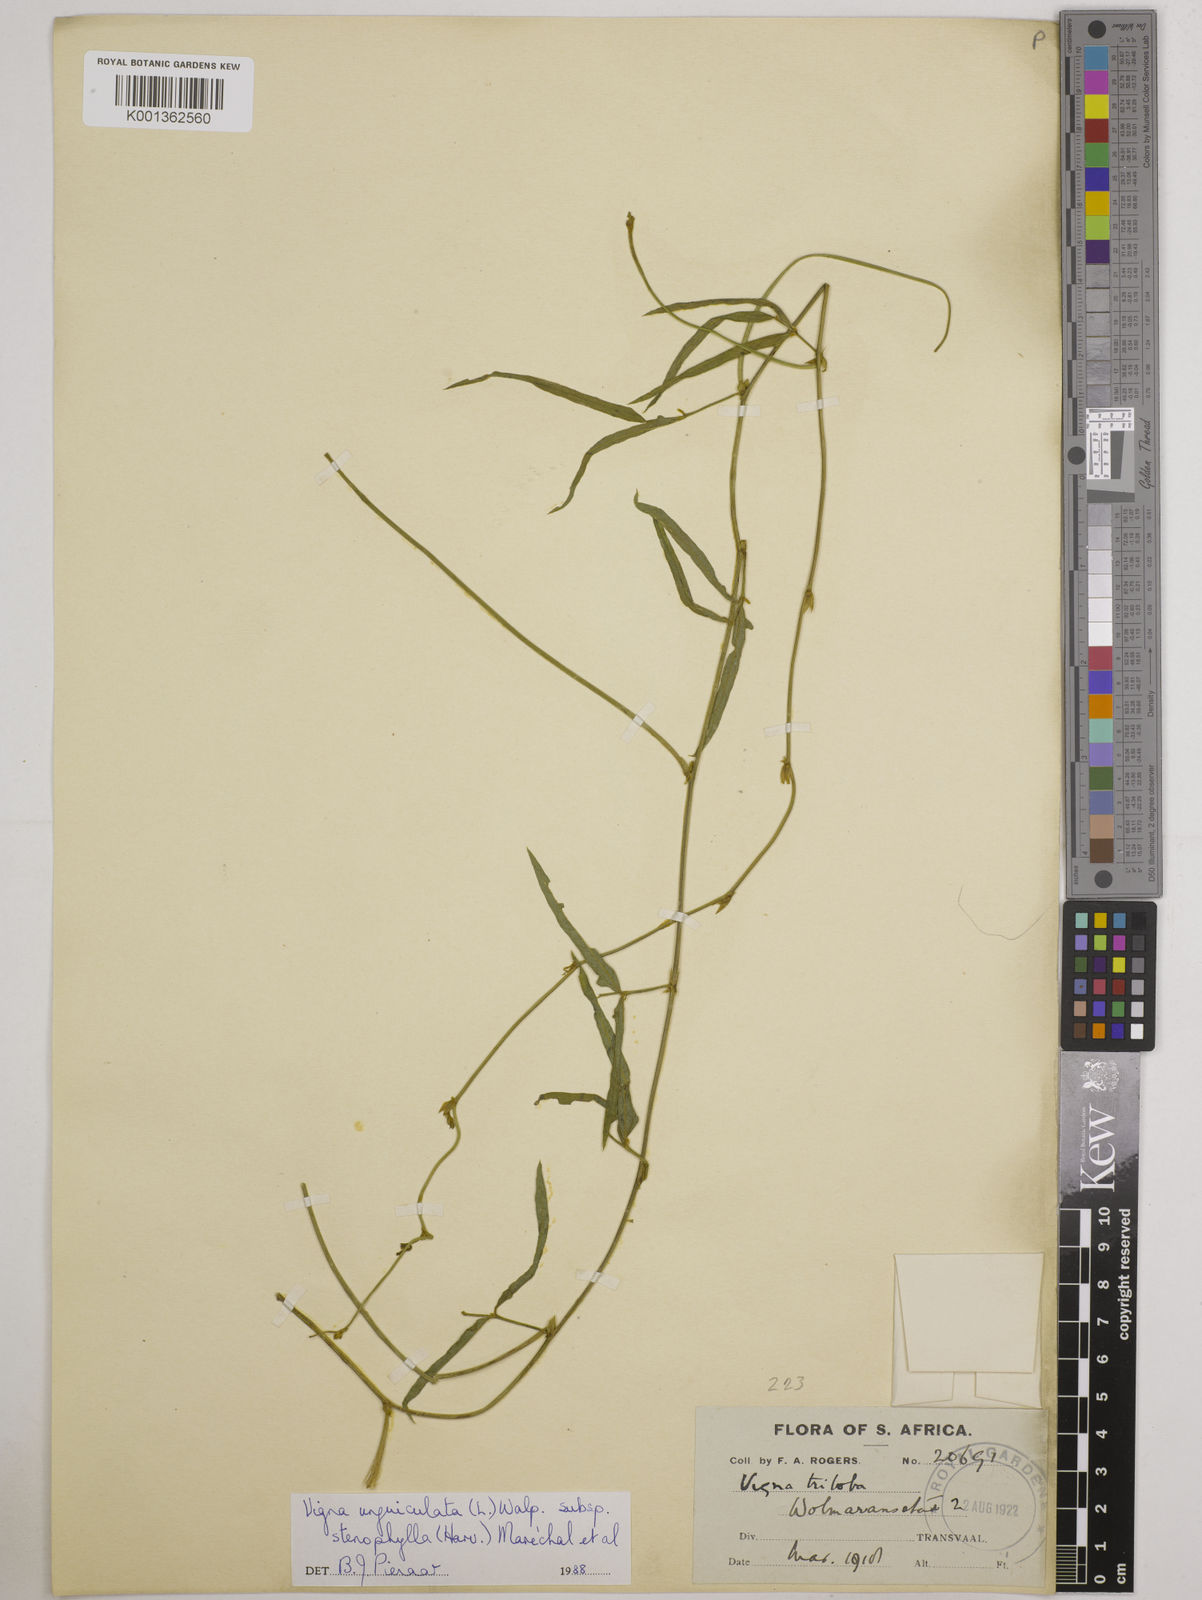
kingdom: Plantae
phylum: Tracheophyta
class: Magnoliopsida
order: Fabales
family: Fabaceae
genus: Vigna
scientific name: Vigna
